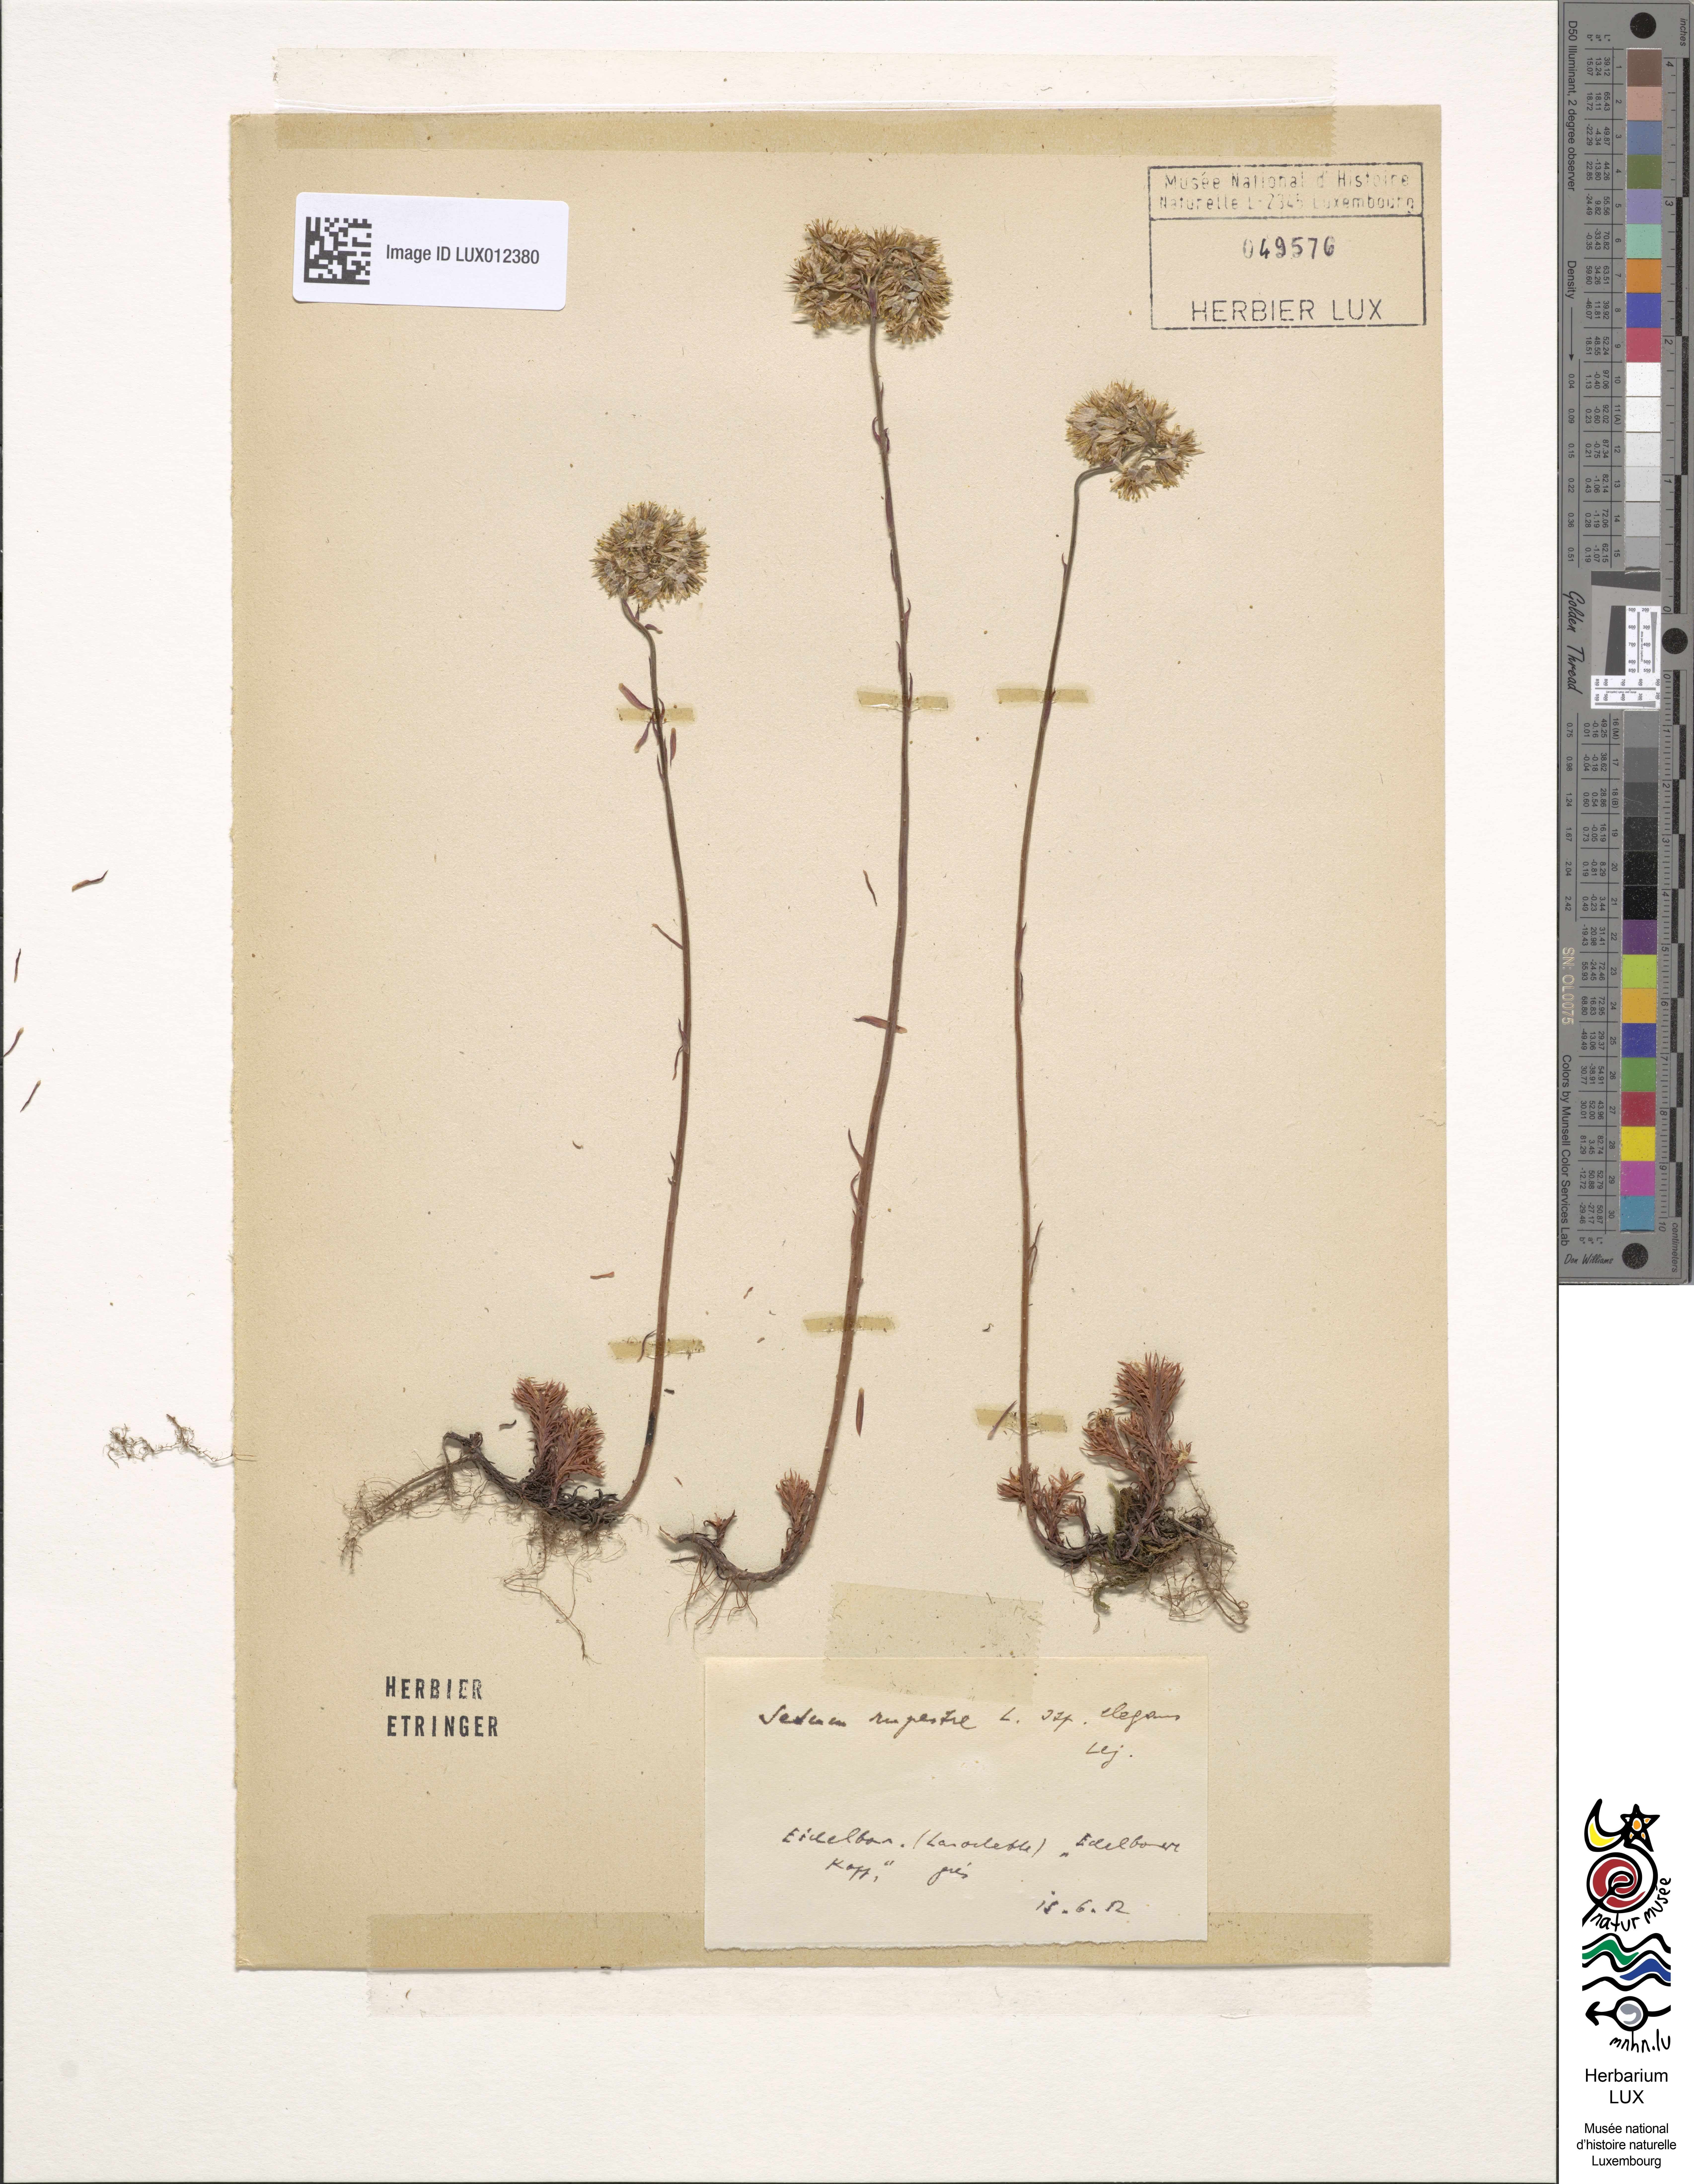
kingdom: Plantae
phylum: Tracheophyta
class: Magnoliopsida
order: Saxifragales
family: Crassulaceae
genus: Petrosedum
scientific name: Petrosedum forsterianum
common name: Forster's stonecrop
